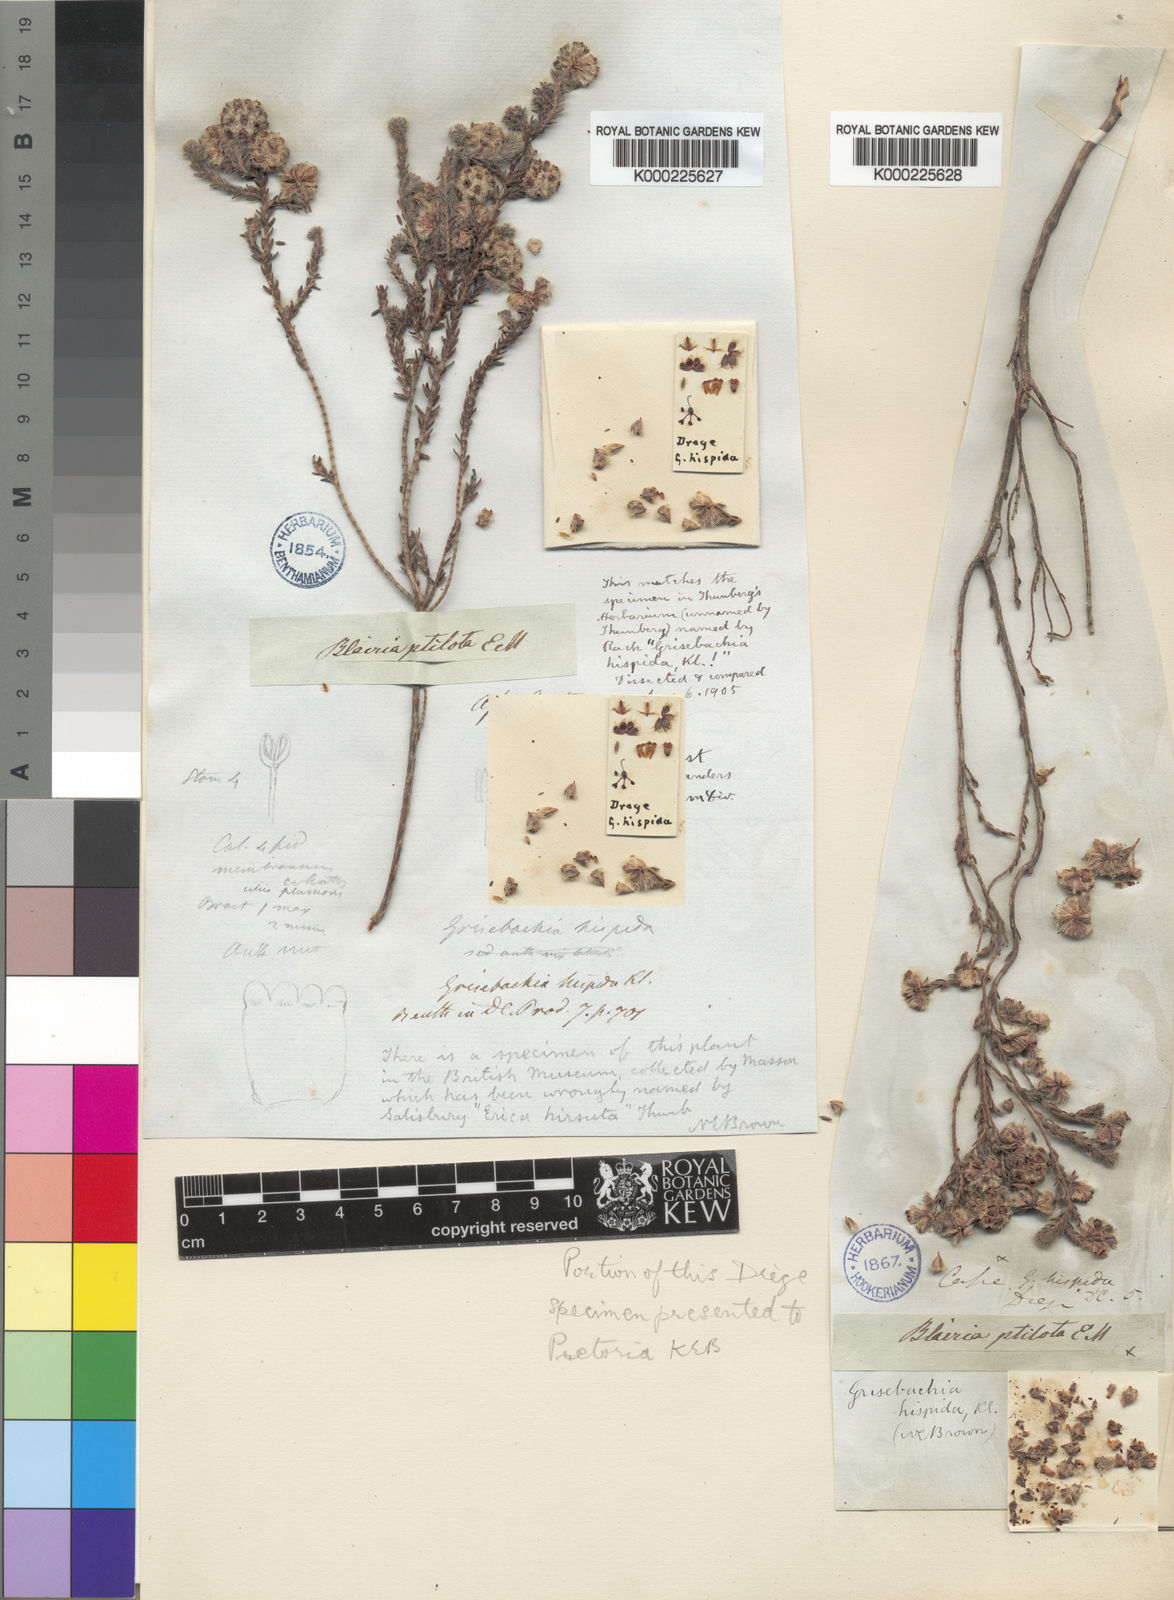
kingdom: Plantae
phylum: Tracheophyta
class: Magnoliopsida
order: Ericales
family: Ericaceae
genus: Erica
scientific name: Erica plumosa
